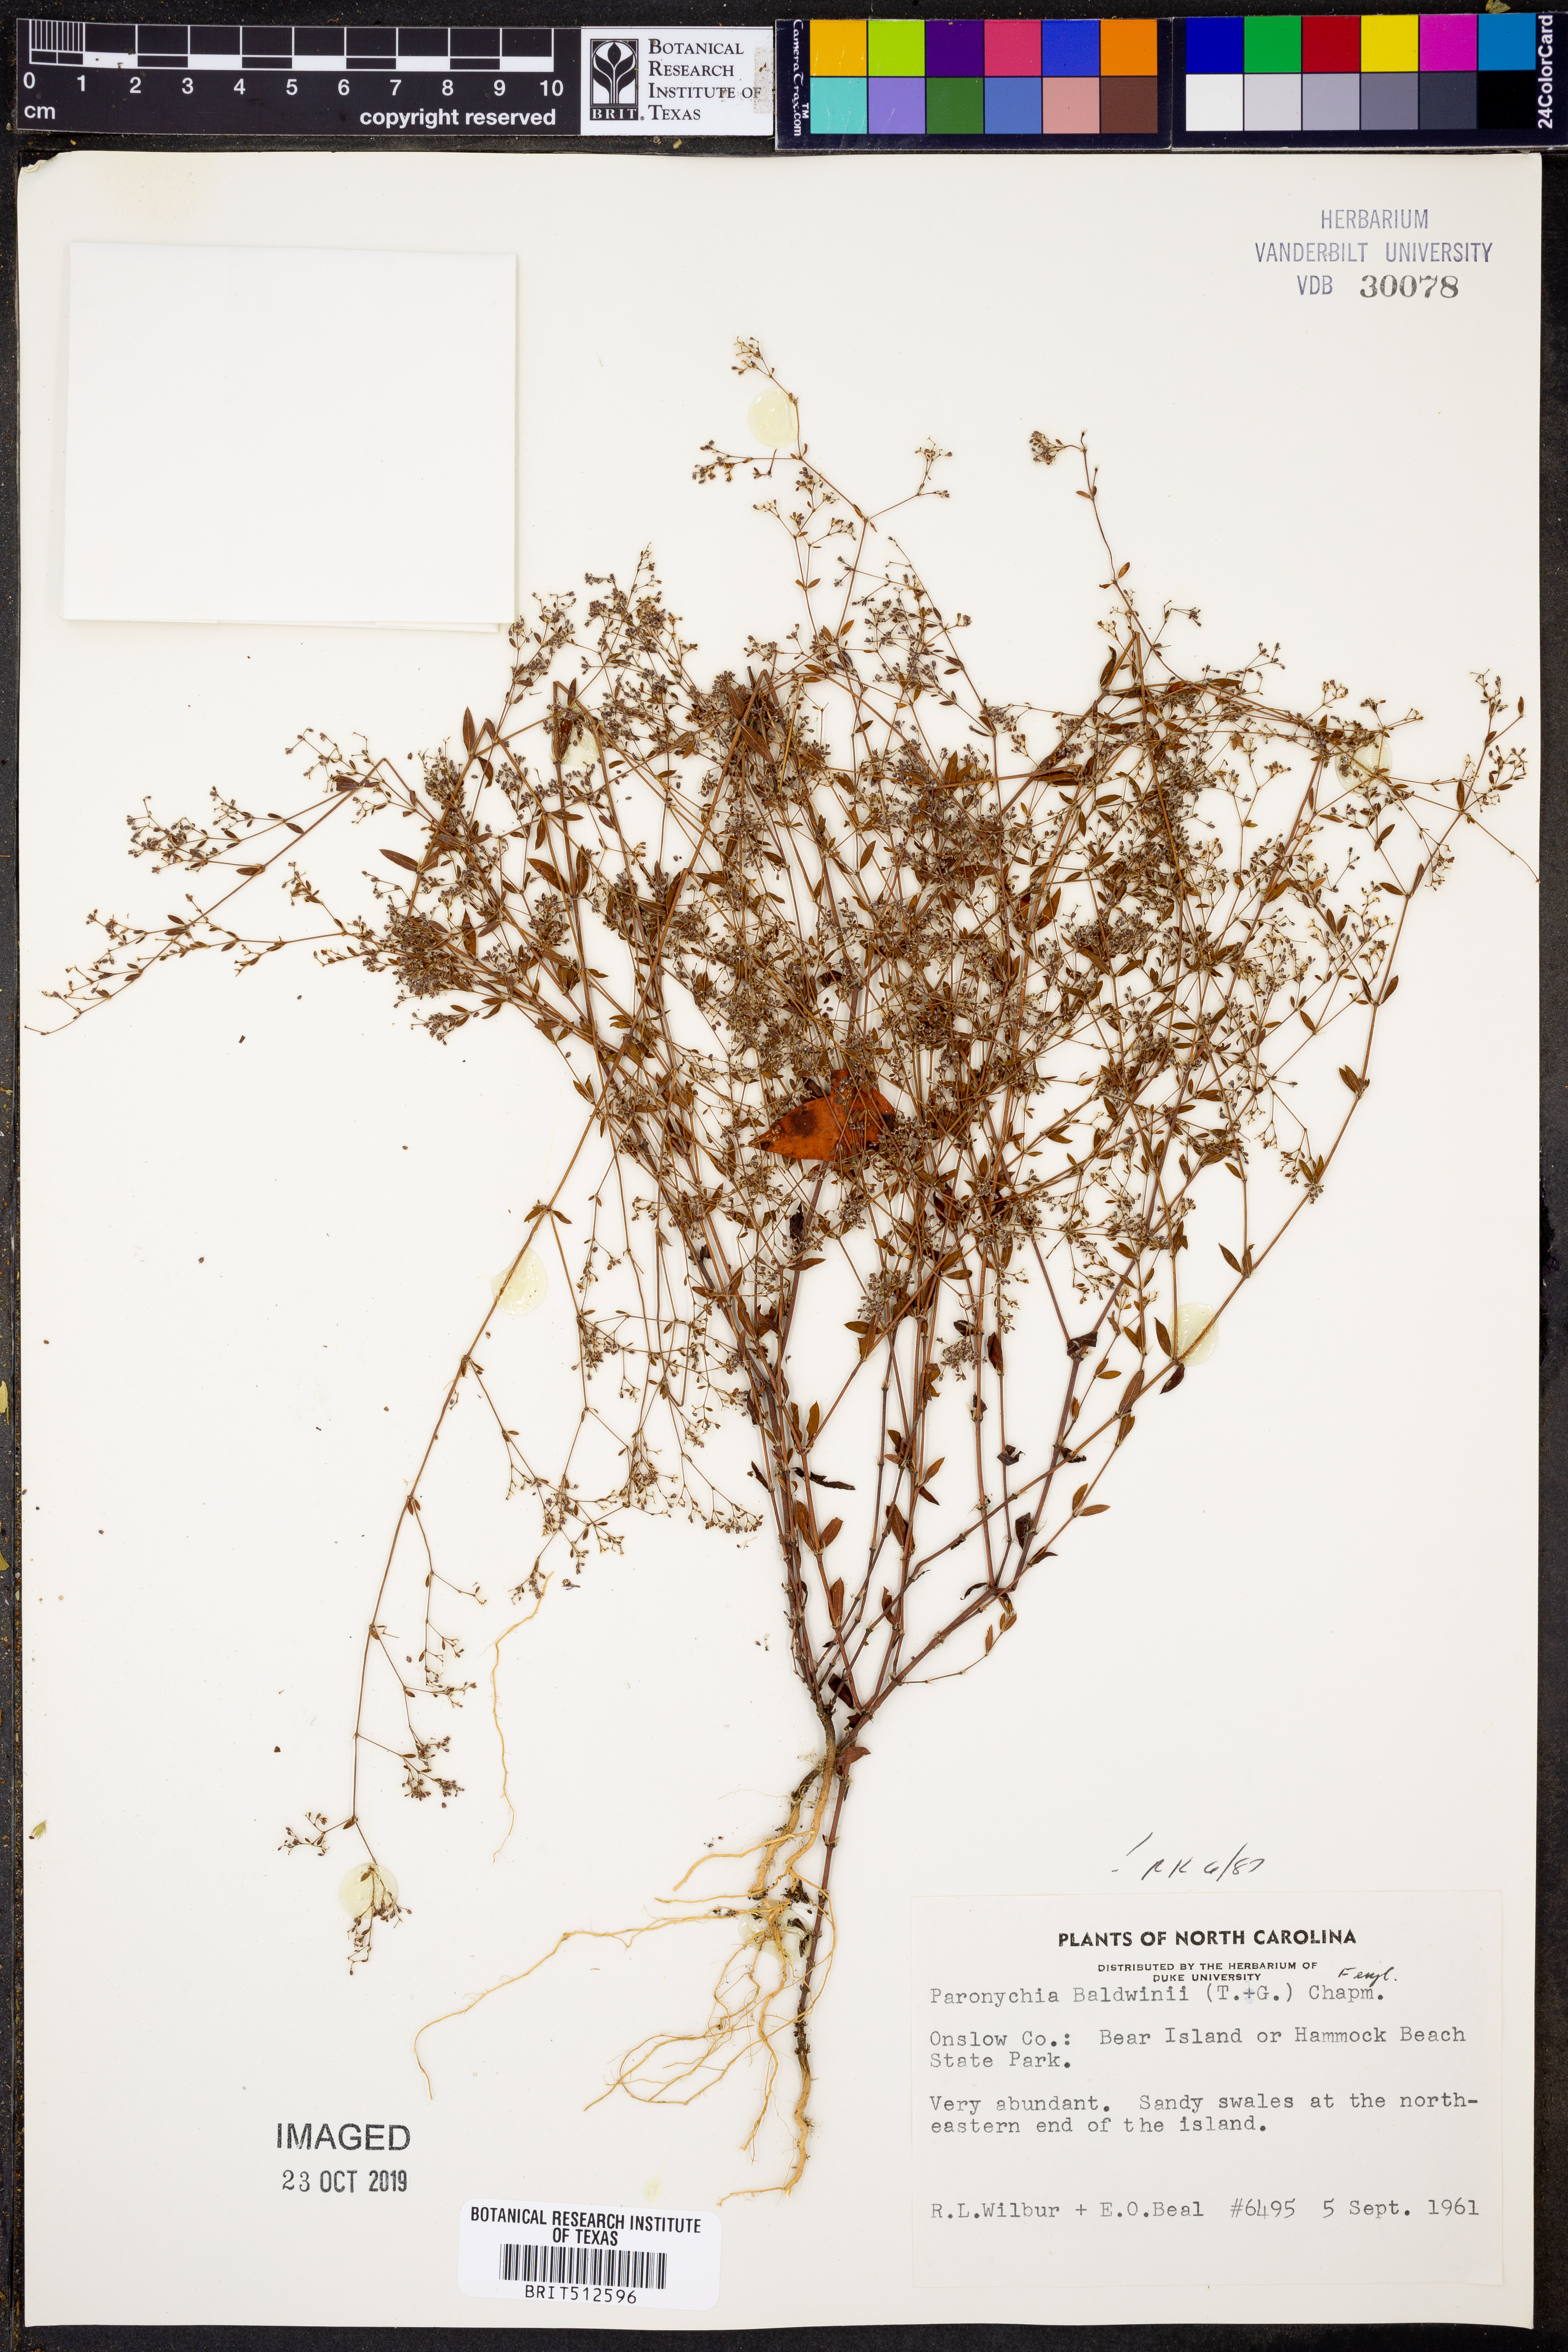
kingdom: Plantae
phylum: Tracheophyta
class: Magnoliopsida
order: Caryophyllales
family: Caryophyllaceae
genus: Paronychia
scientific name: Paronychia baldwinii
